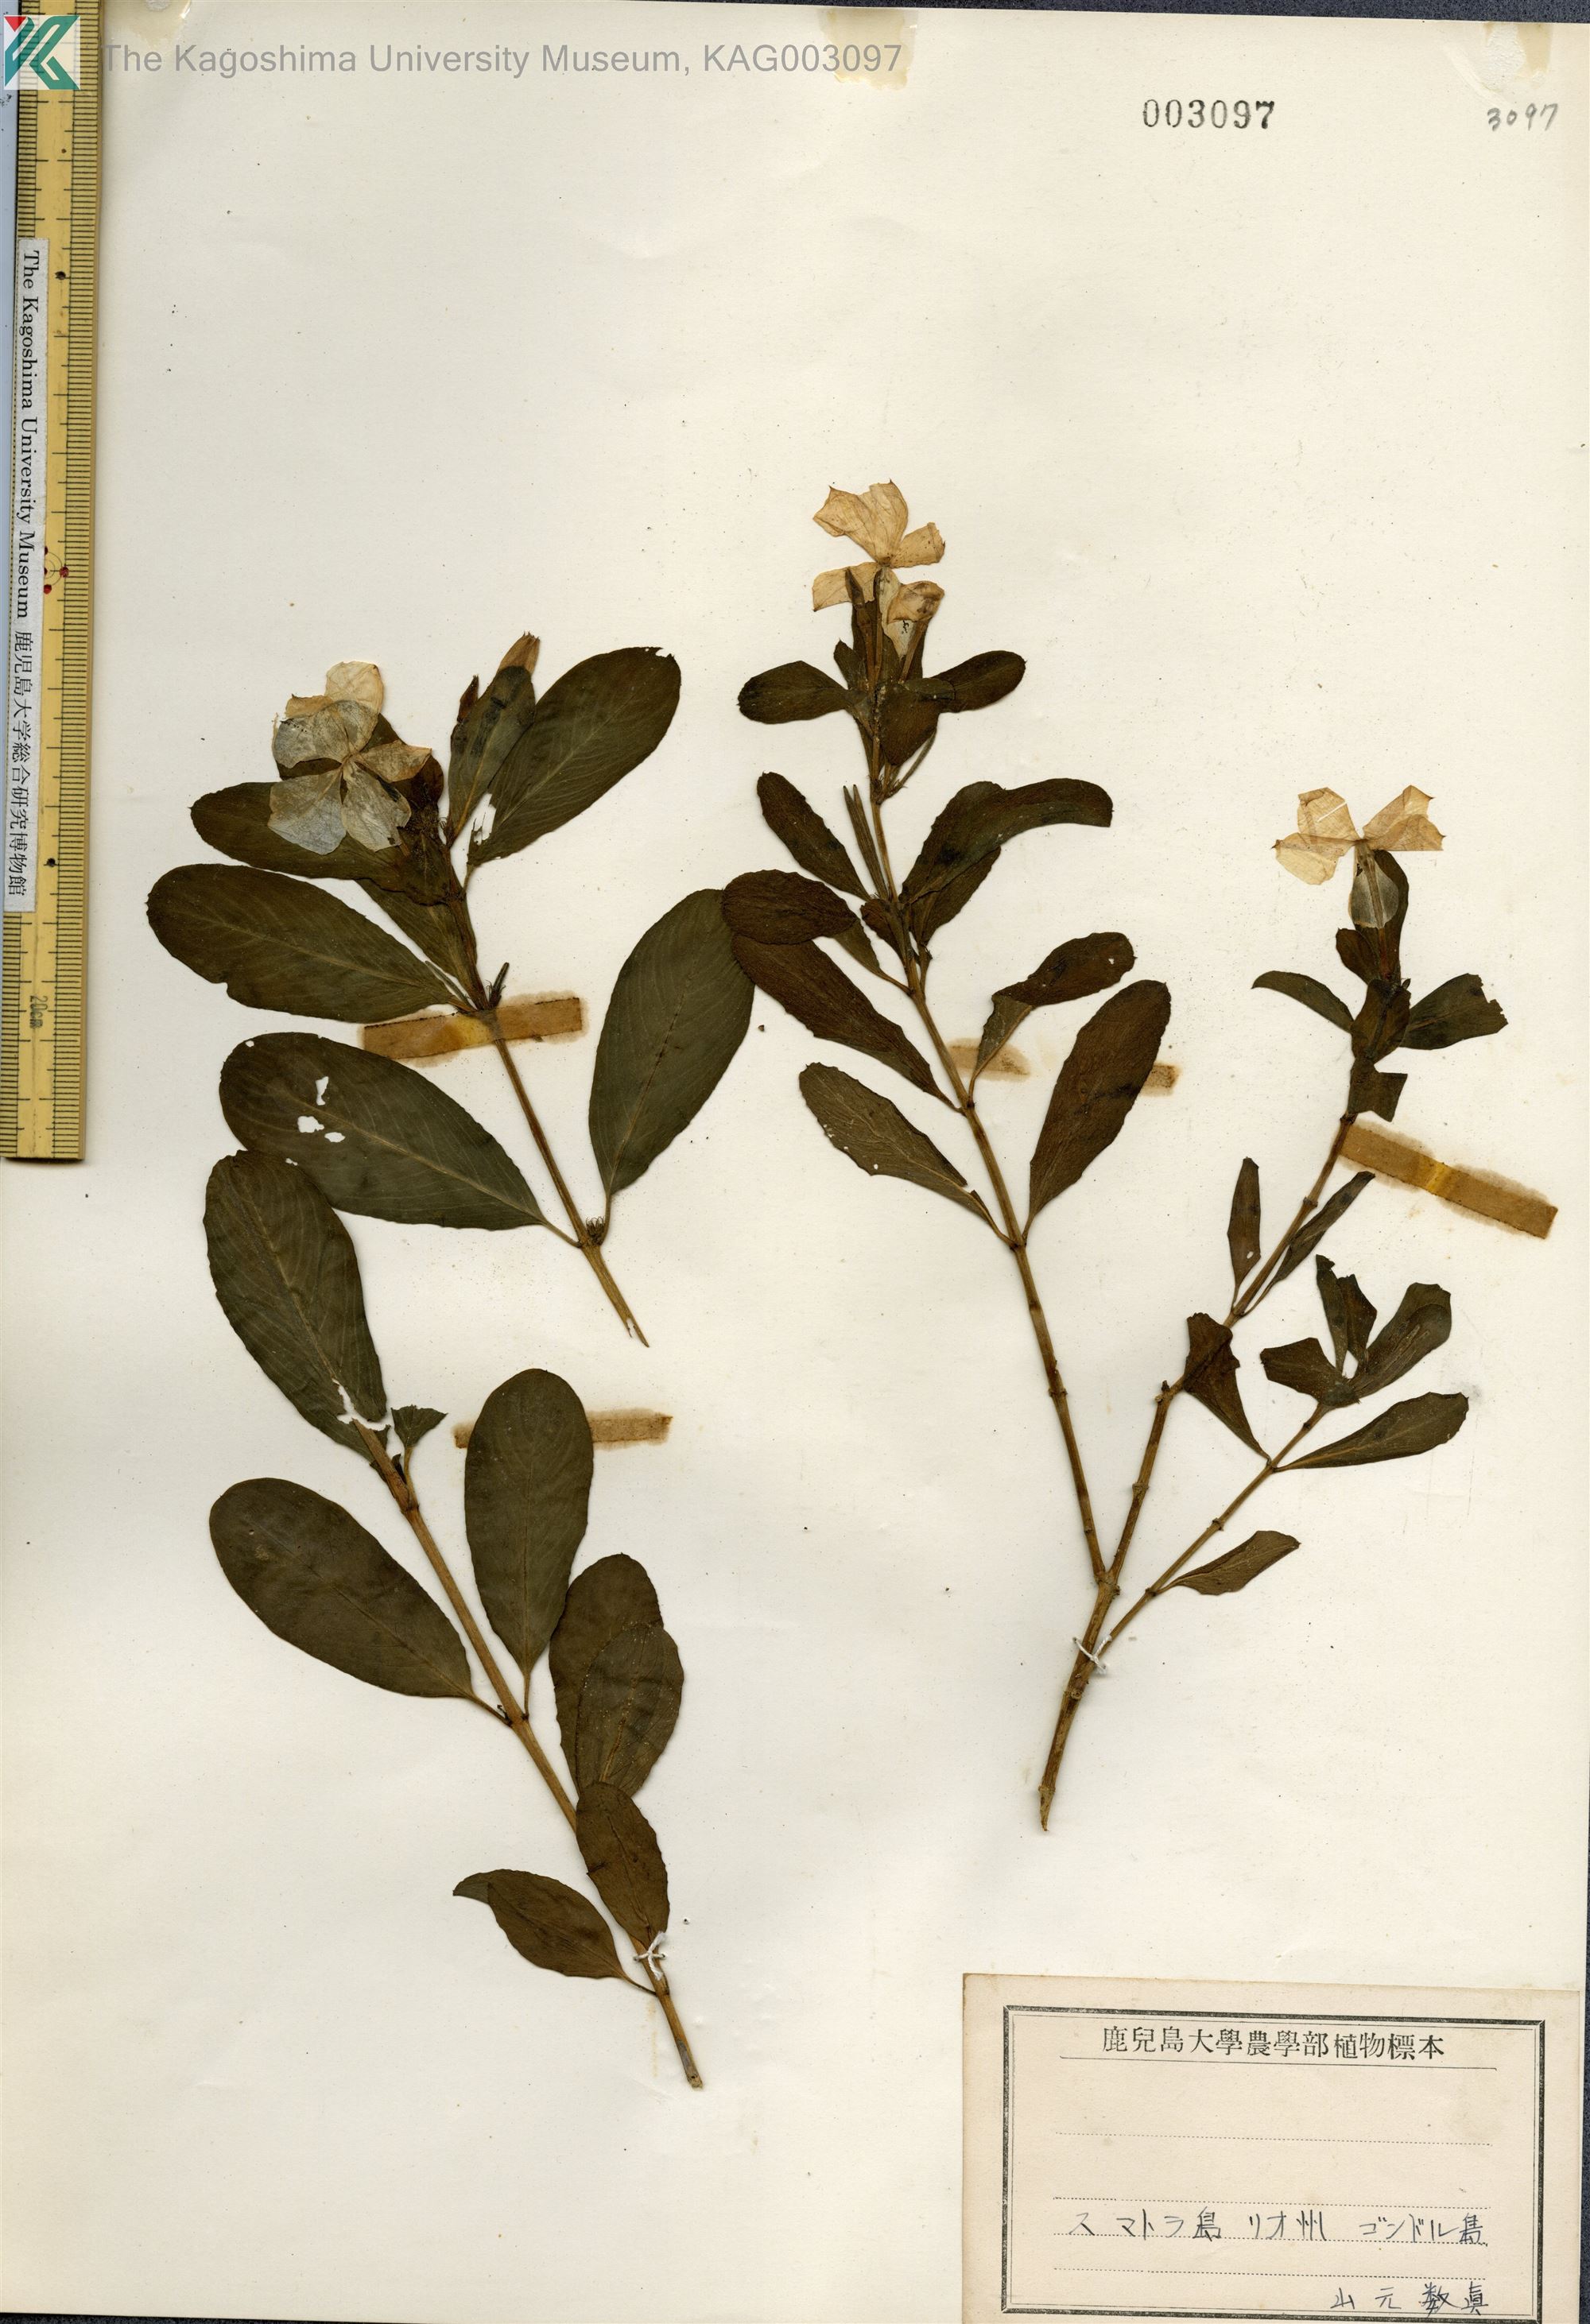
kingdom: Plantae
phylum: Tracheophyta
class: Magnoliopsida
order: Gentianales
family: Apocynaceae
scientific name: Apocynaceae
